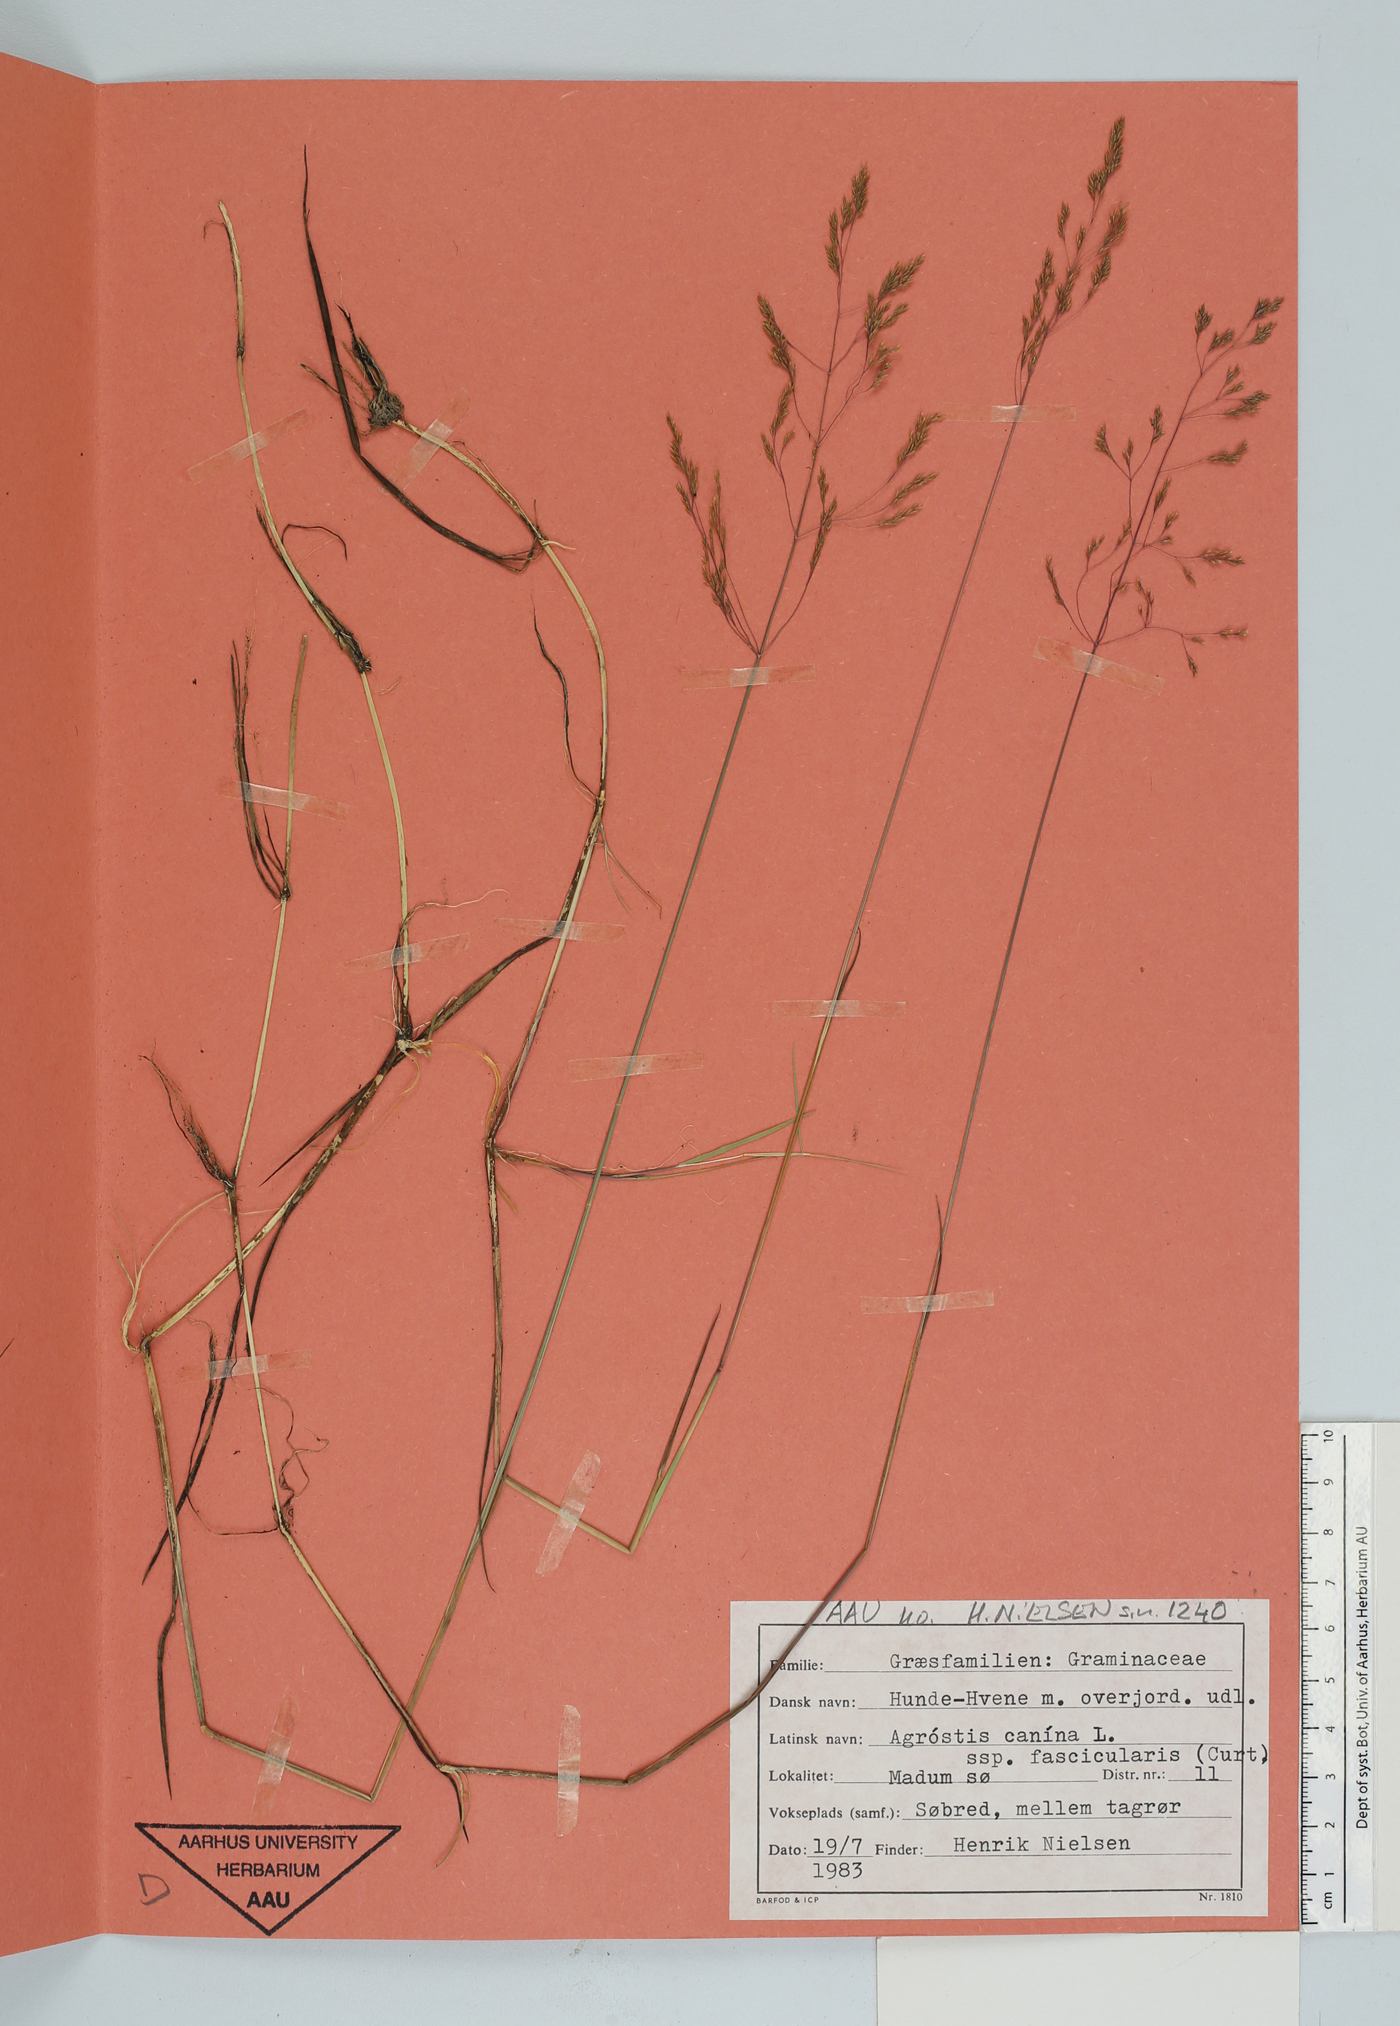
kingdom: Plantae
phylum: Tracheophyta
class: Liliopsida
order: Poales
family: Poaceae
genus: Agrostis
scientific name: Agrostis canina
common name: Velvet bent
